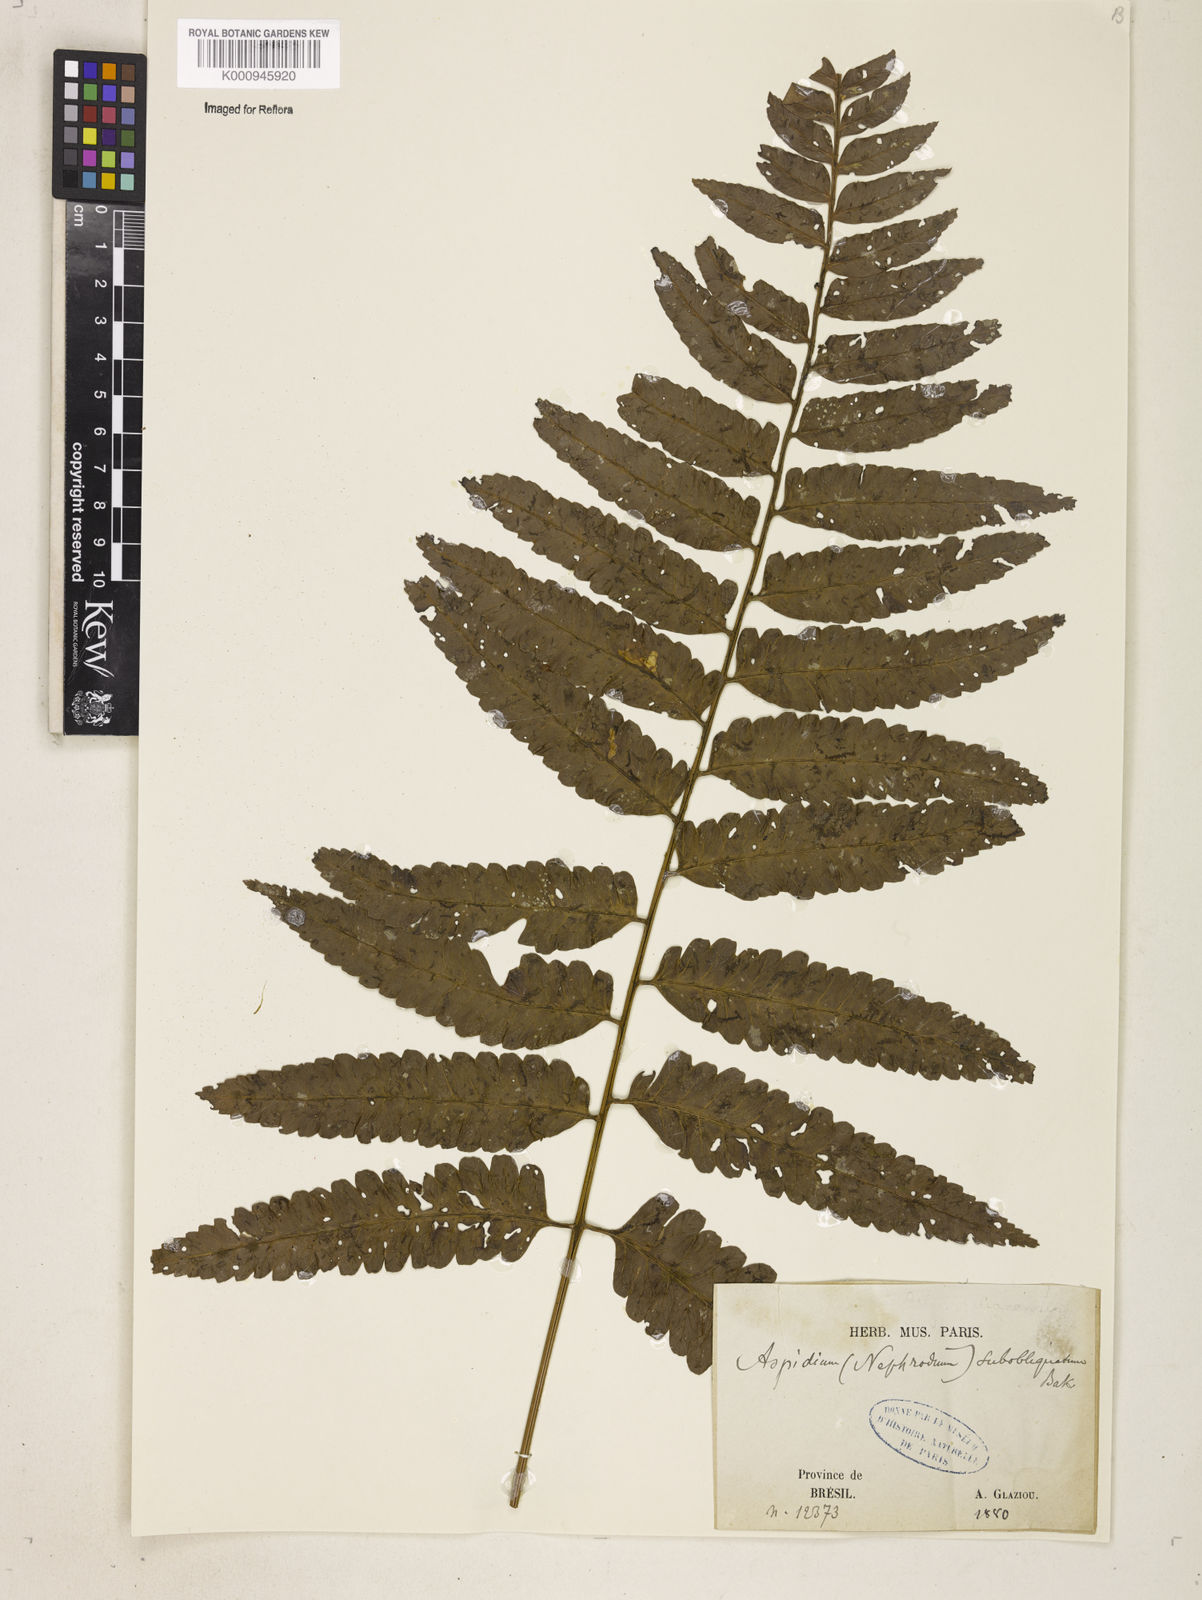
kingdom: Plantae
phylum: Tracheophyta
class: Polypodiopsida
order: Polypodiales
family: Dryopteridaceae
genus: Cyclodium
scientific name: Cyclodium
